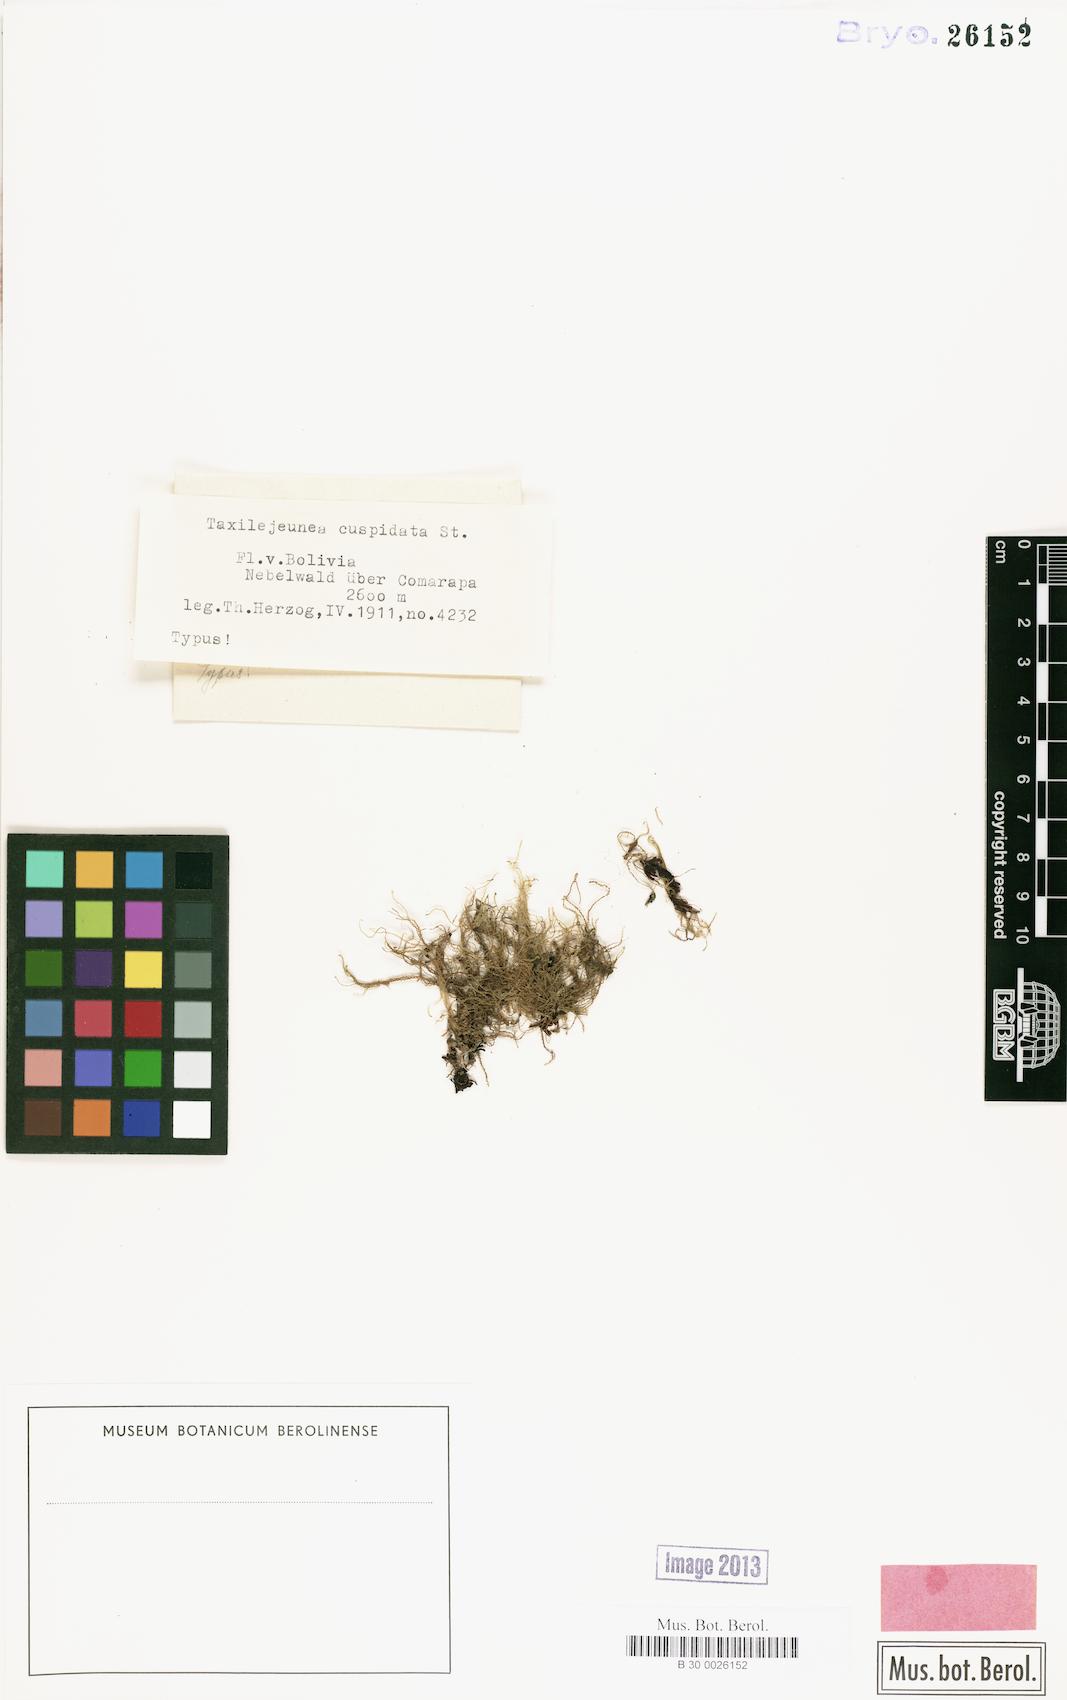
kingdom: Plantae
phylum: Marchantiophyta
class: Jungermanniopsida
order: Porellales
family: Lejeuneaceae
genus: Taxilejeunea
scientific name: Taxilejeunea cuspidata
